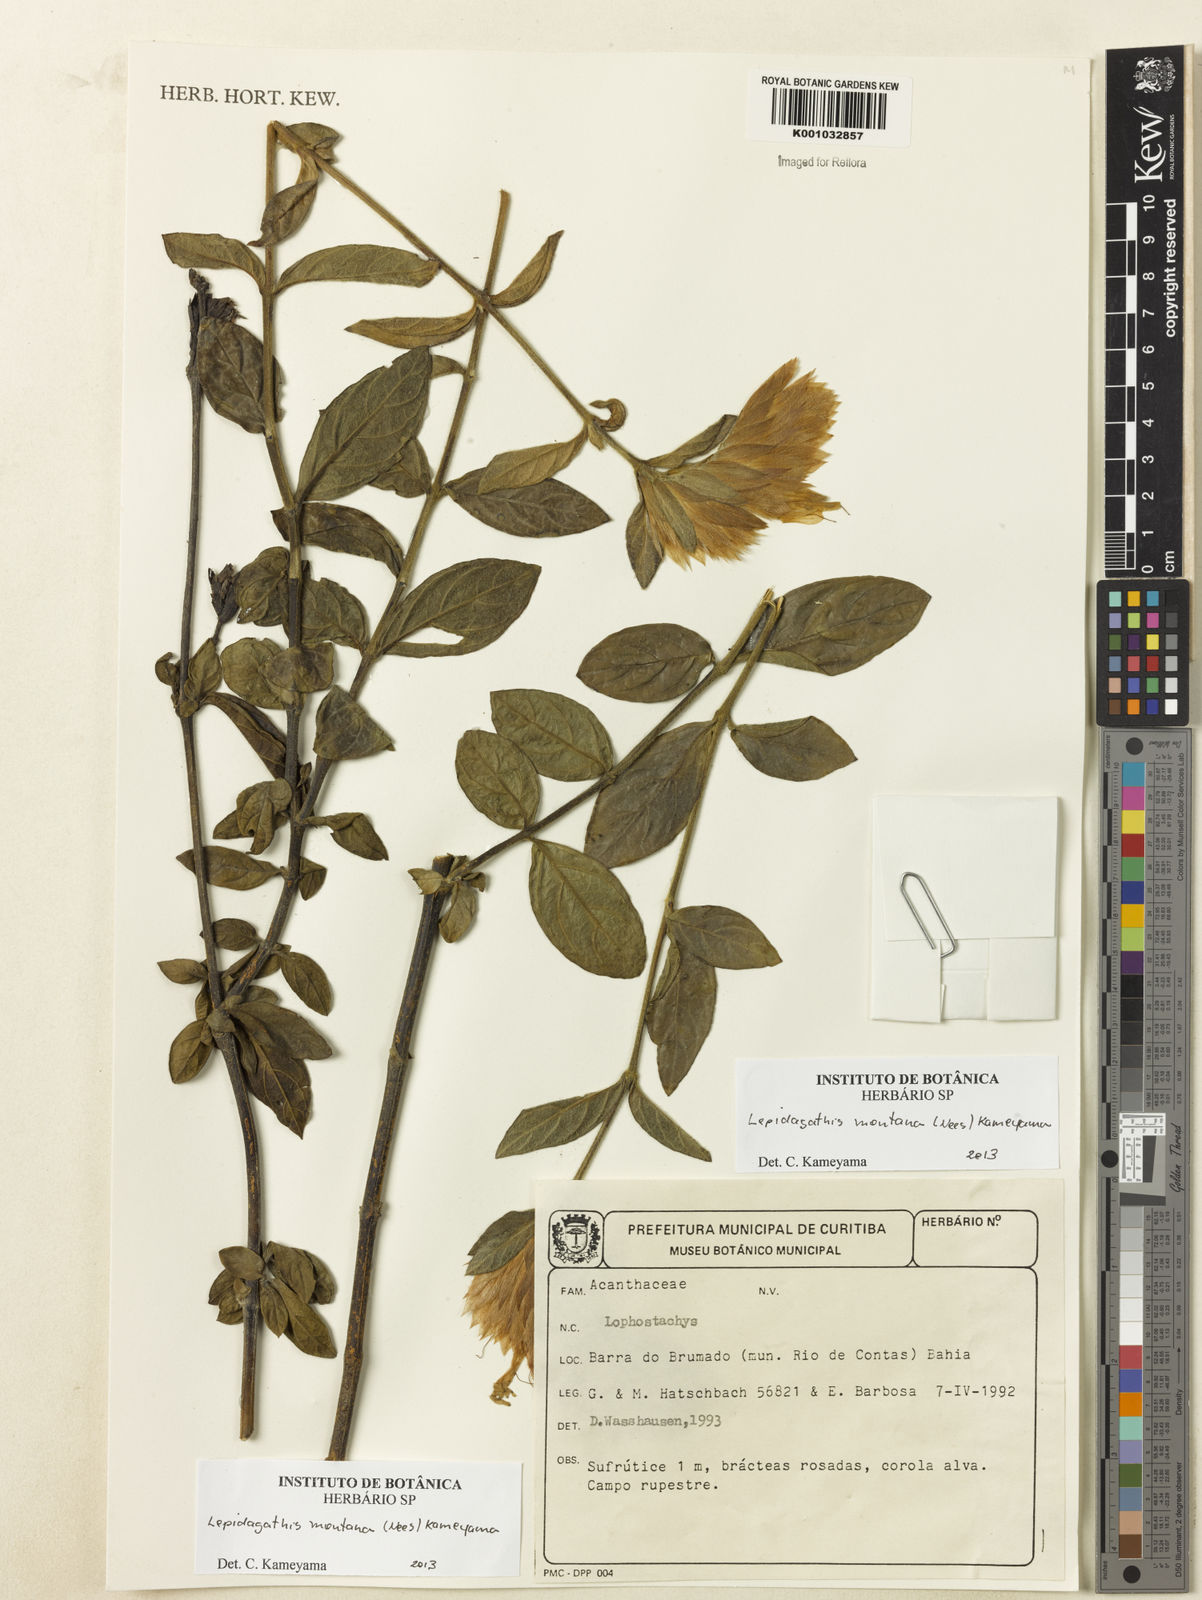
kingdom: Plantae
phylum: Tracheophyta
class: Magnoliopsida
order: Lamiales
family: Acanthaceae
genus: Lepidagathis
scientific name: Lepidagathis montana
